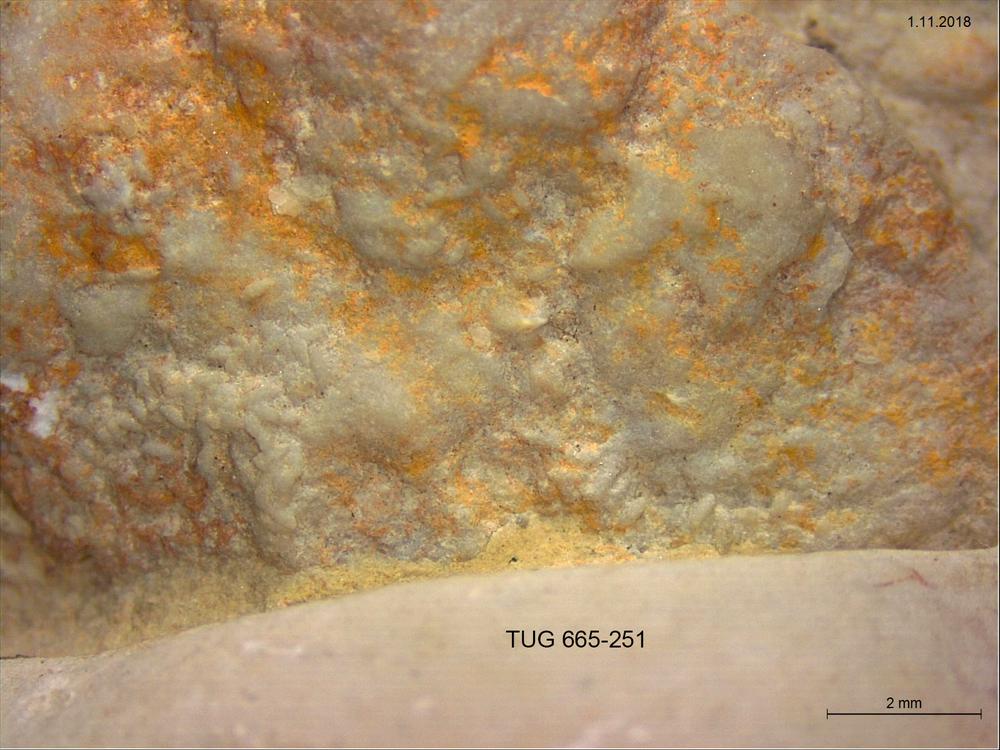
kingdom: Animalia
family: Coprulidae
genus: Coprulus
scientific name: Coprulus
